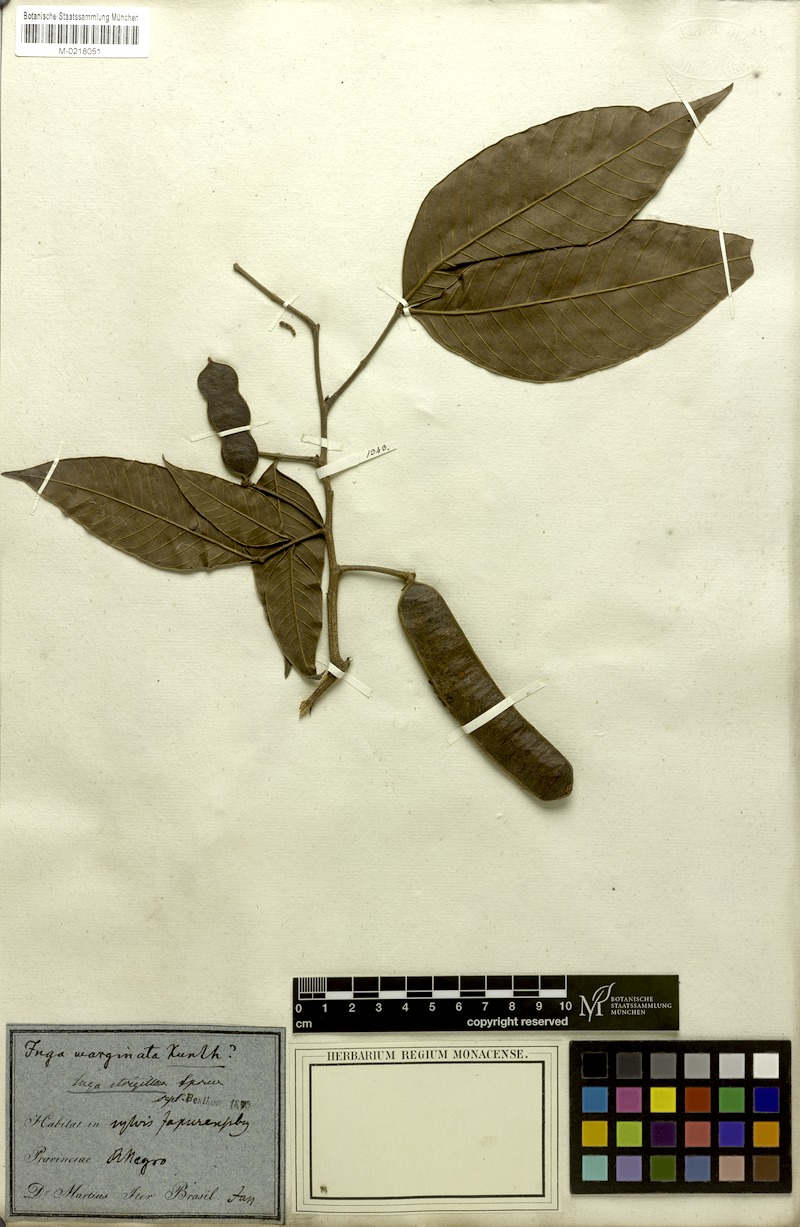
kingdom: Plantae
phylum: Tracheophyta
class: Magnoliopsida
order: Fabales
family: Fabaceae
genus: Inga
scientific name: Inga punctata
